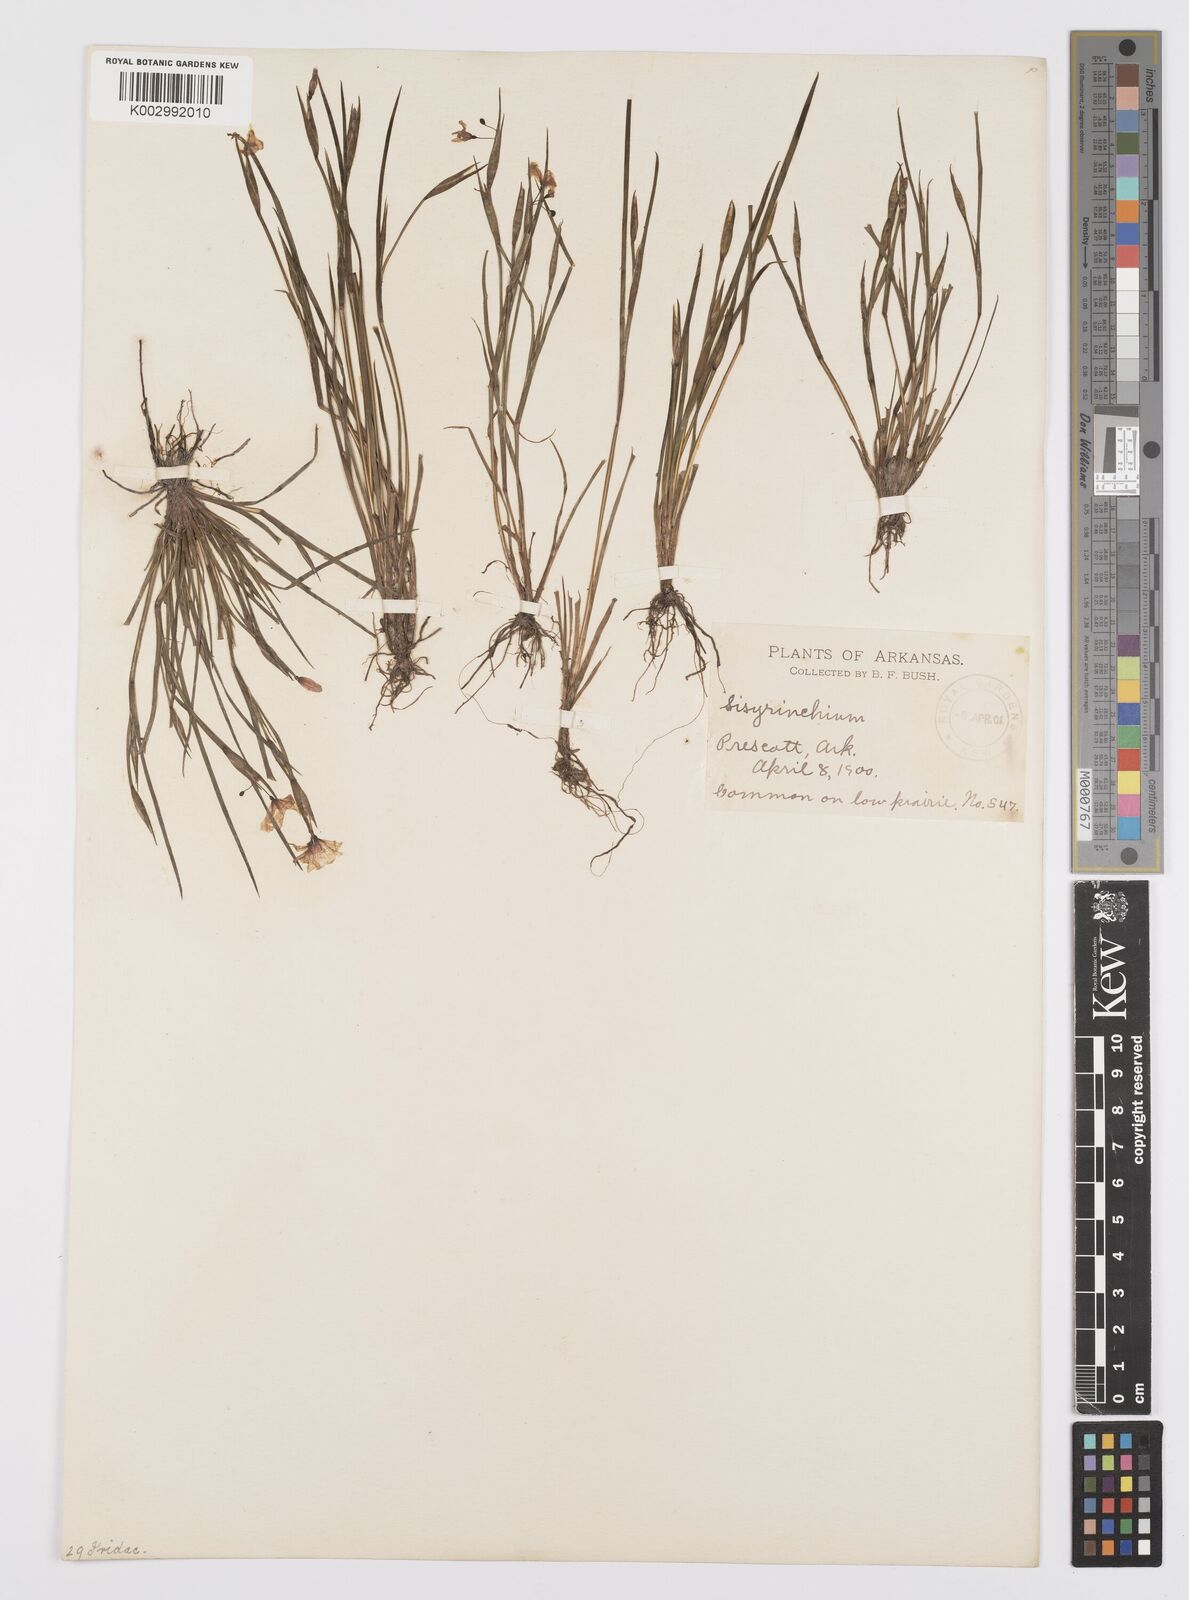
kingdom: Plantae
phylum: Tracheophyta
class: Liliopsida
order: Asparagales
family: Iridaceae
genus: Sisyrinchium
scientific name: Sisyrinchium
